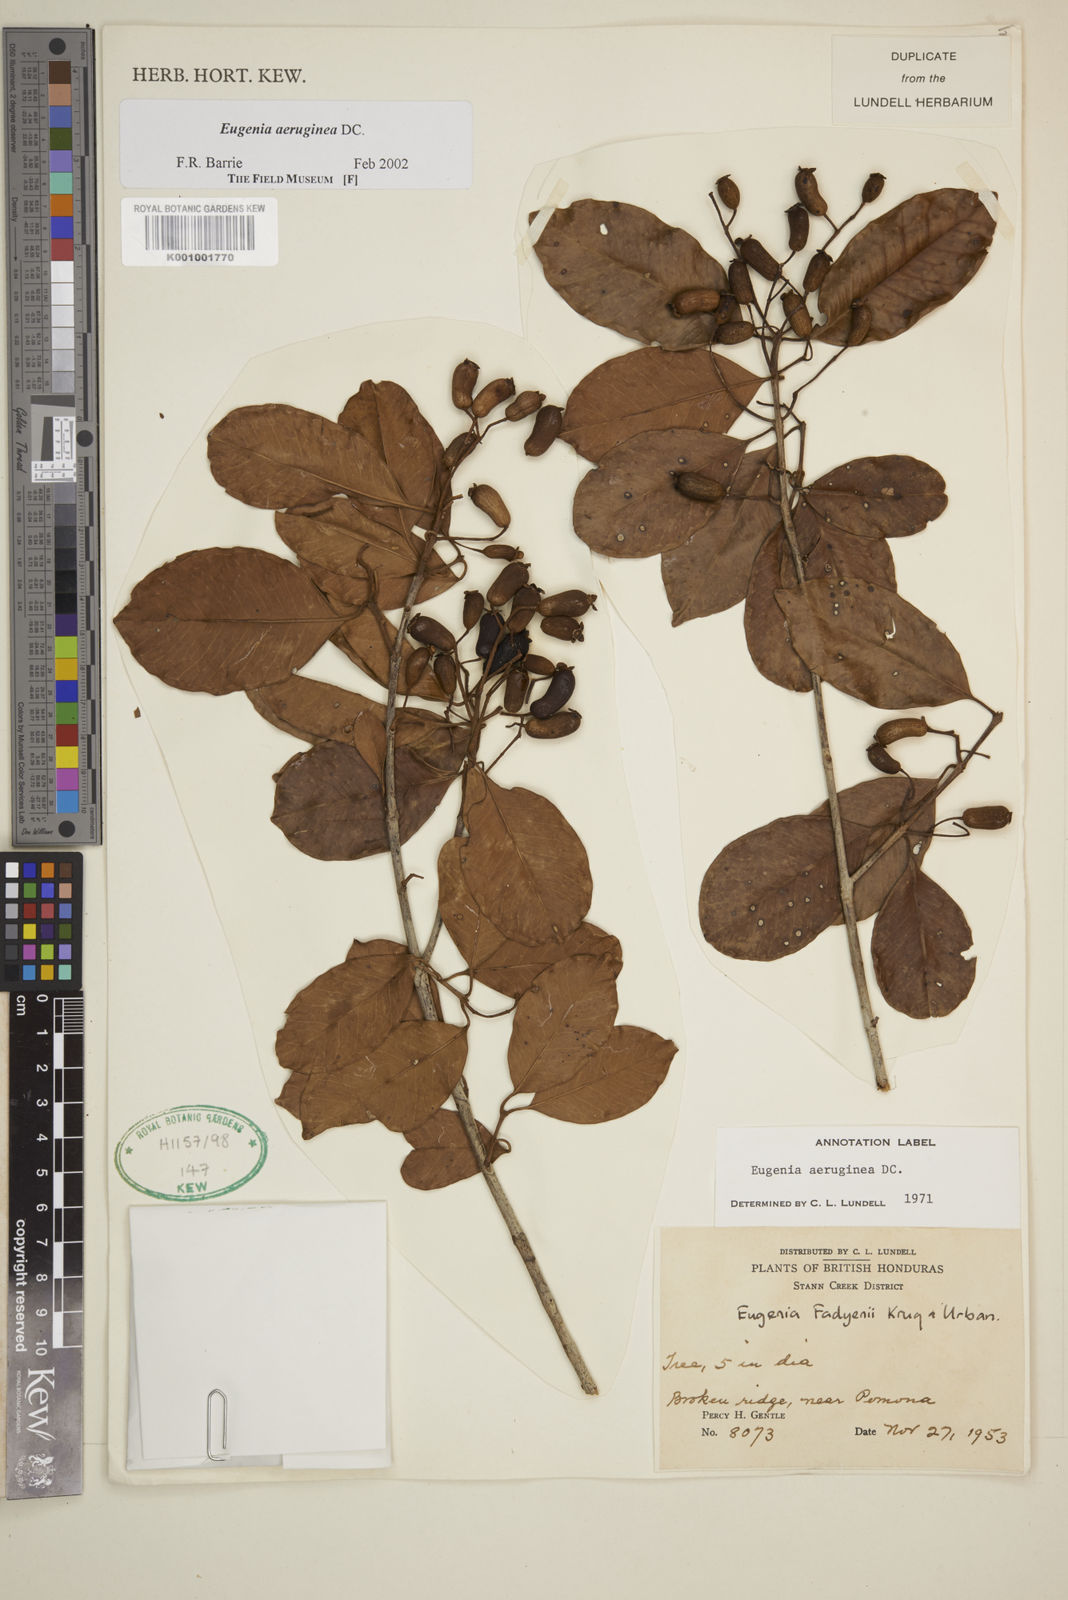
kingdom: Plantae
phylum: Tracheophyta
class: Magnoliopsida
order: Myrtales
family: Myrtaceae
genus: Eugenia
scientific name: Eugenia aeruginea
